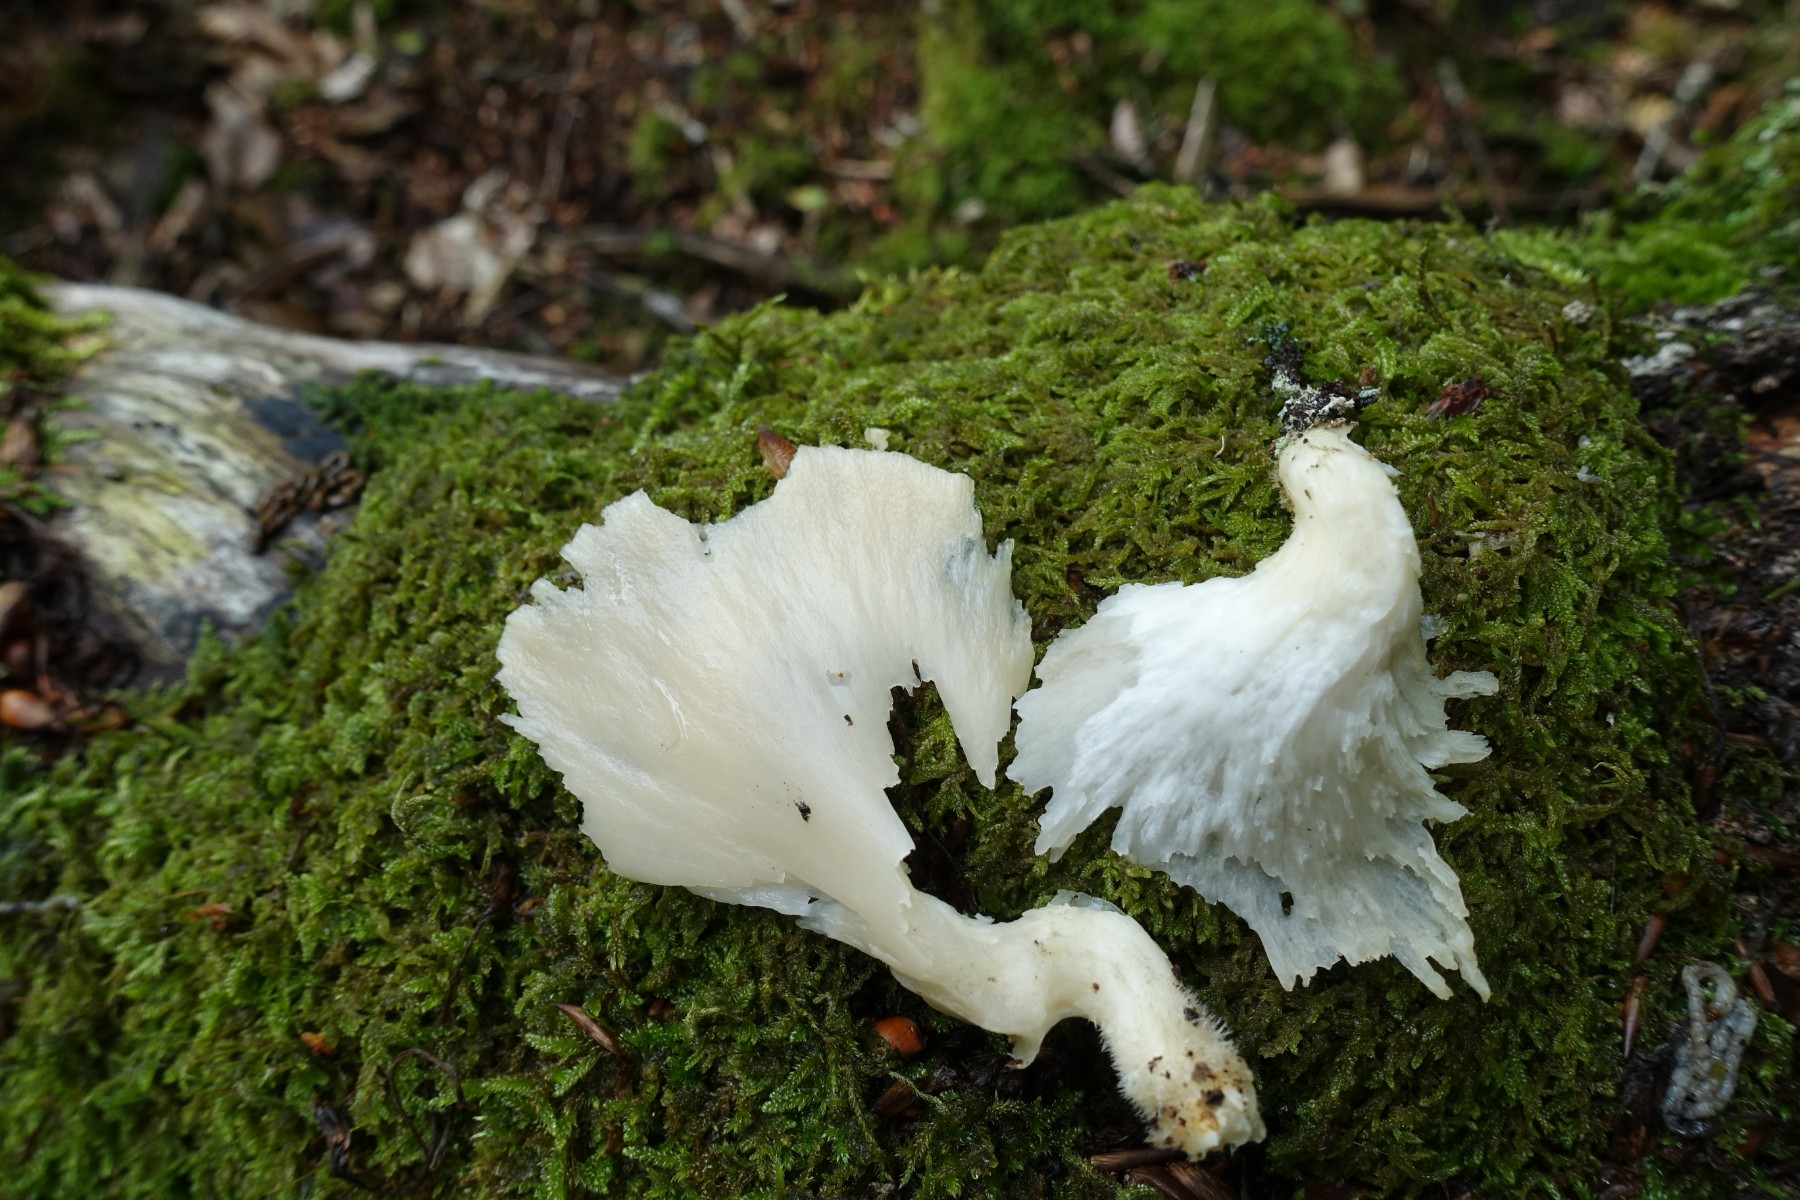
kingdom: Fungi
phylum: Basidiomycota
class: Agaricomycetes
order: Agaricales
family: Pleurotaceae
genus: Pleurotus
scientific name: Pleurotus pulmonarius
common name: sommer-østershat
